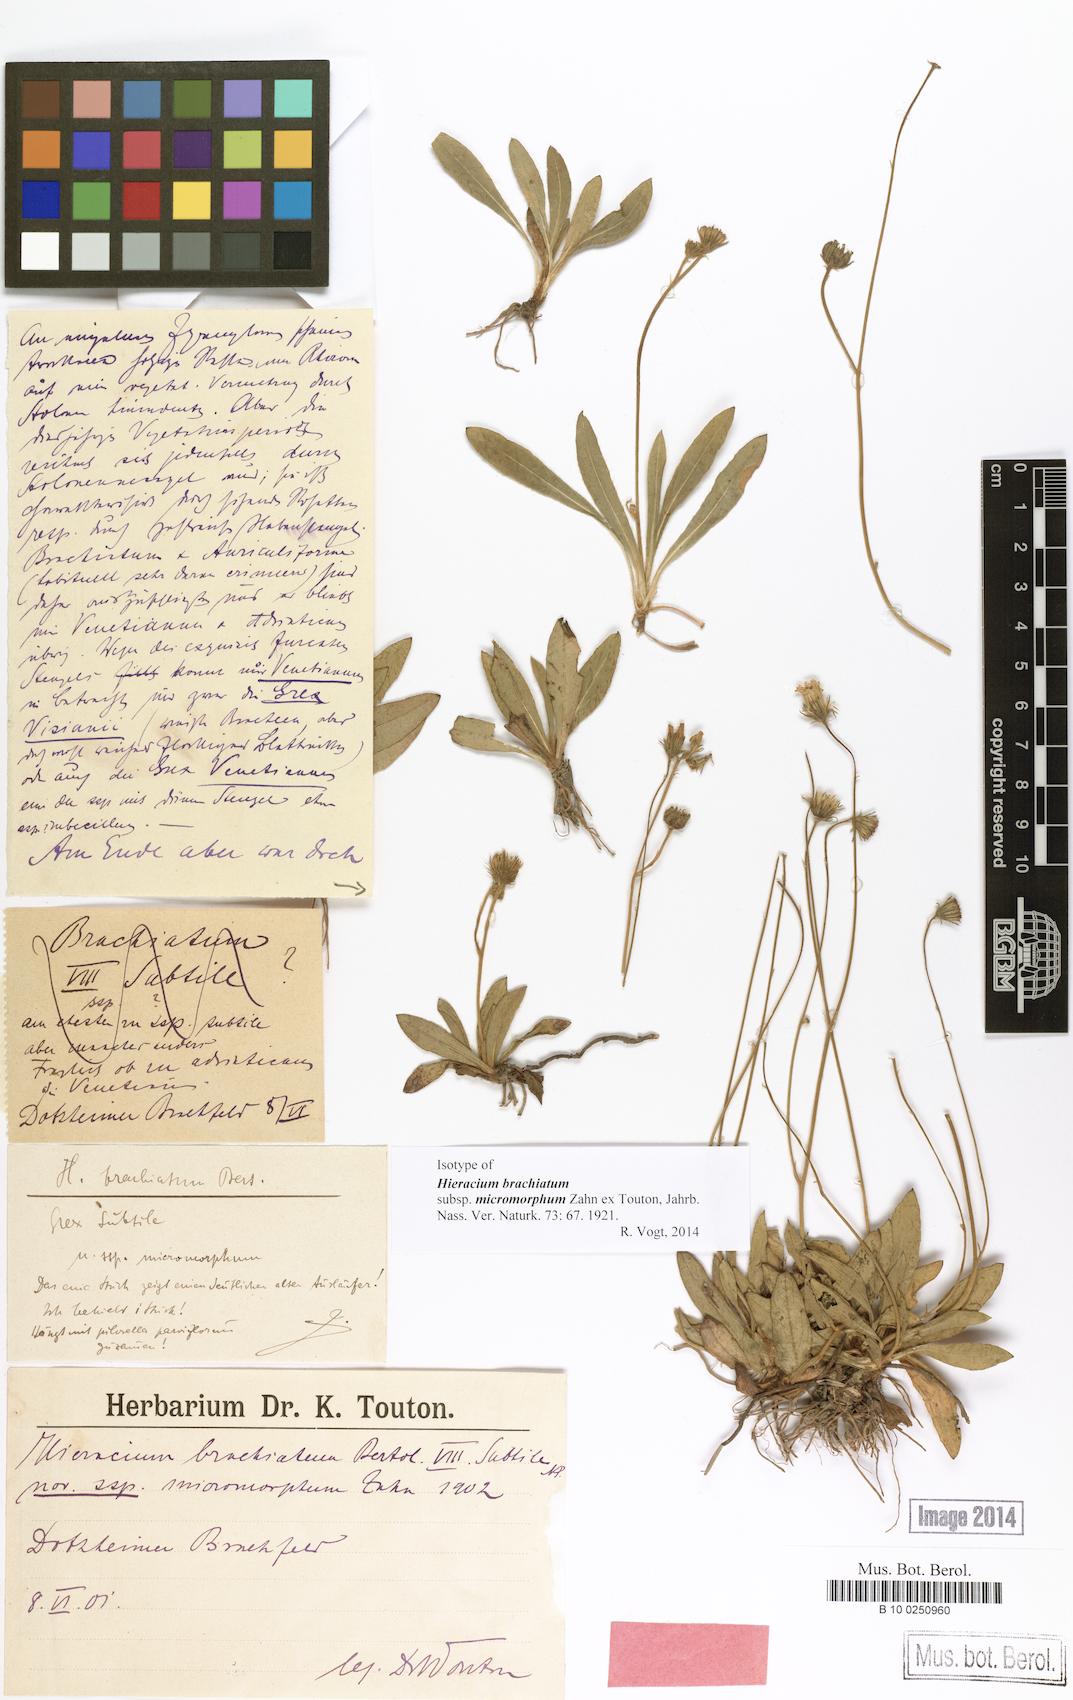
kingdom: Plantae
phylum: Tracheophyta
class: Magnoliopsida
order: Asterales
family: Asteraceae
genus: Pilosella
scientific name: Pilosella acutifolia
